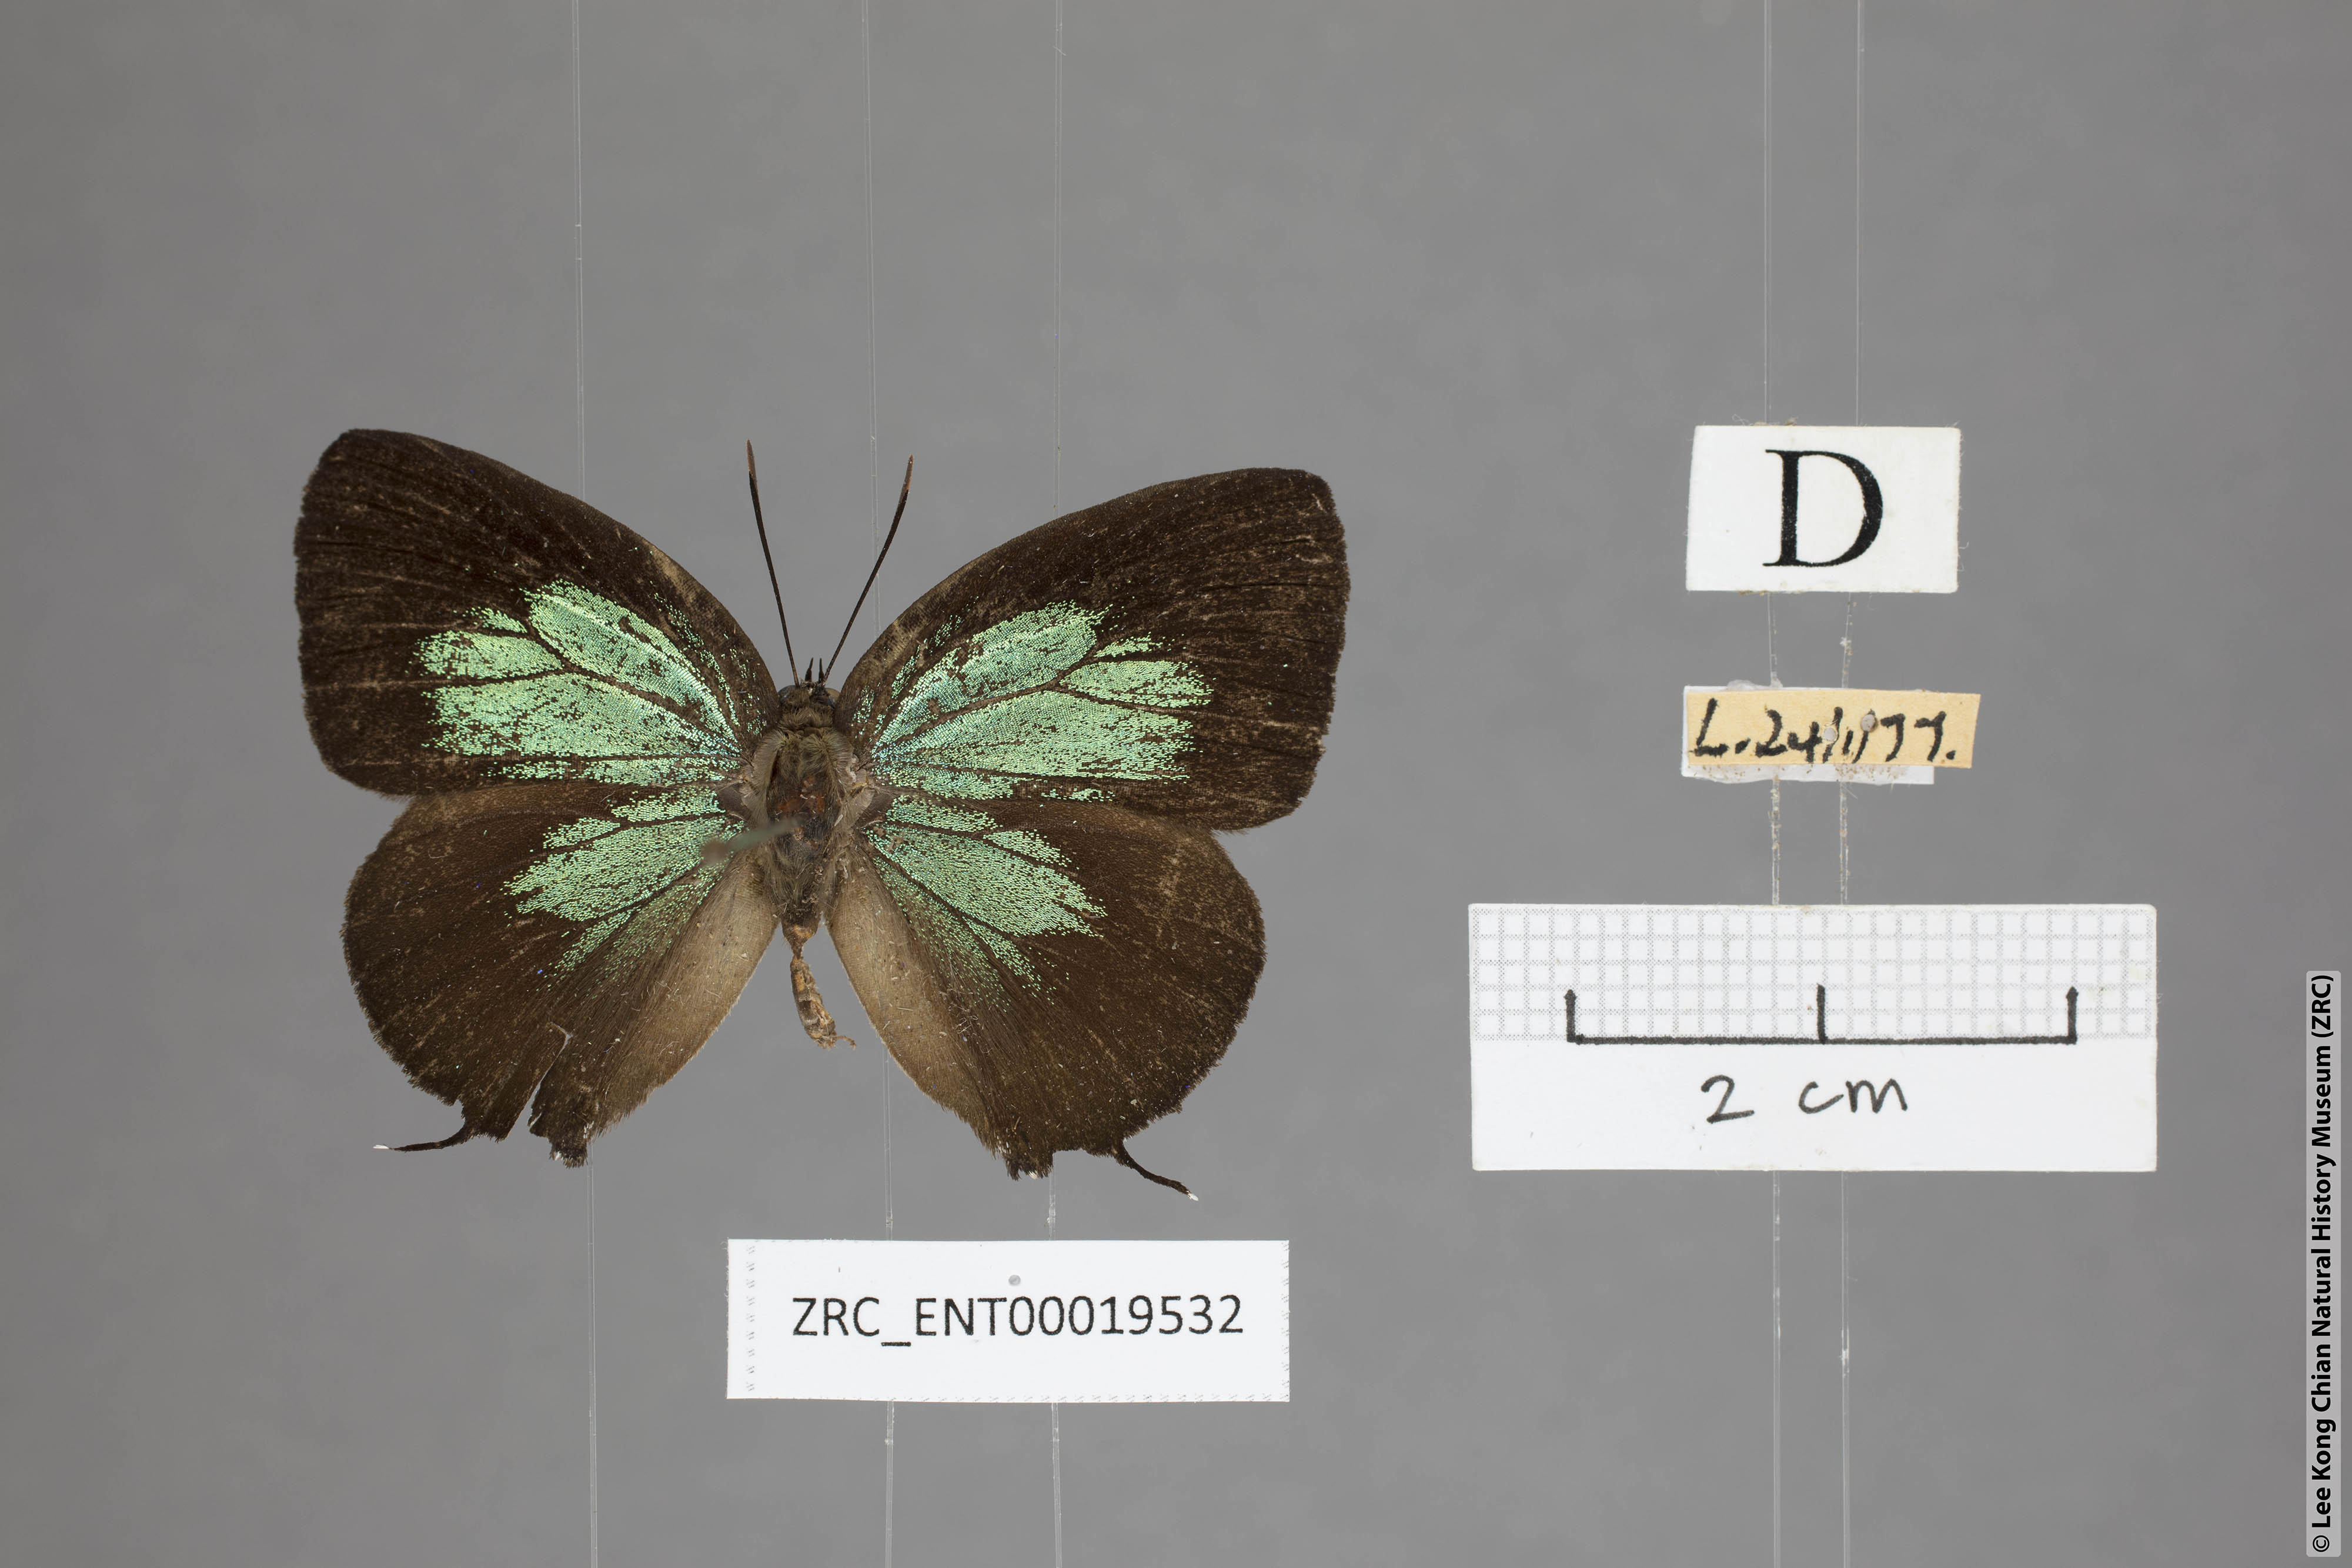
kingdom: Animalia
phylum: Arthropoda
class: Insecta
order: Lepidoptera
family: Lycaenidae
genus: Arhopala
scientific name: Arhopala horsfieldi
